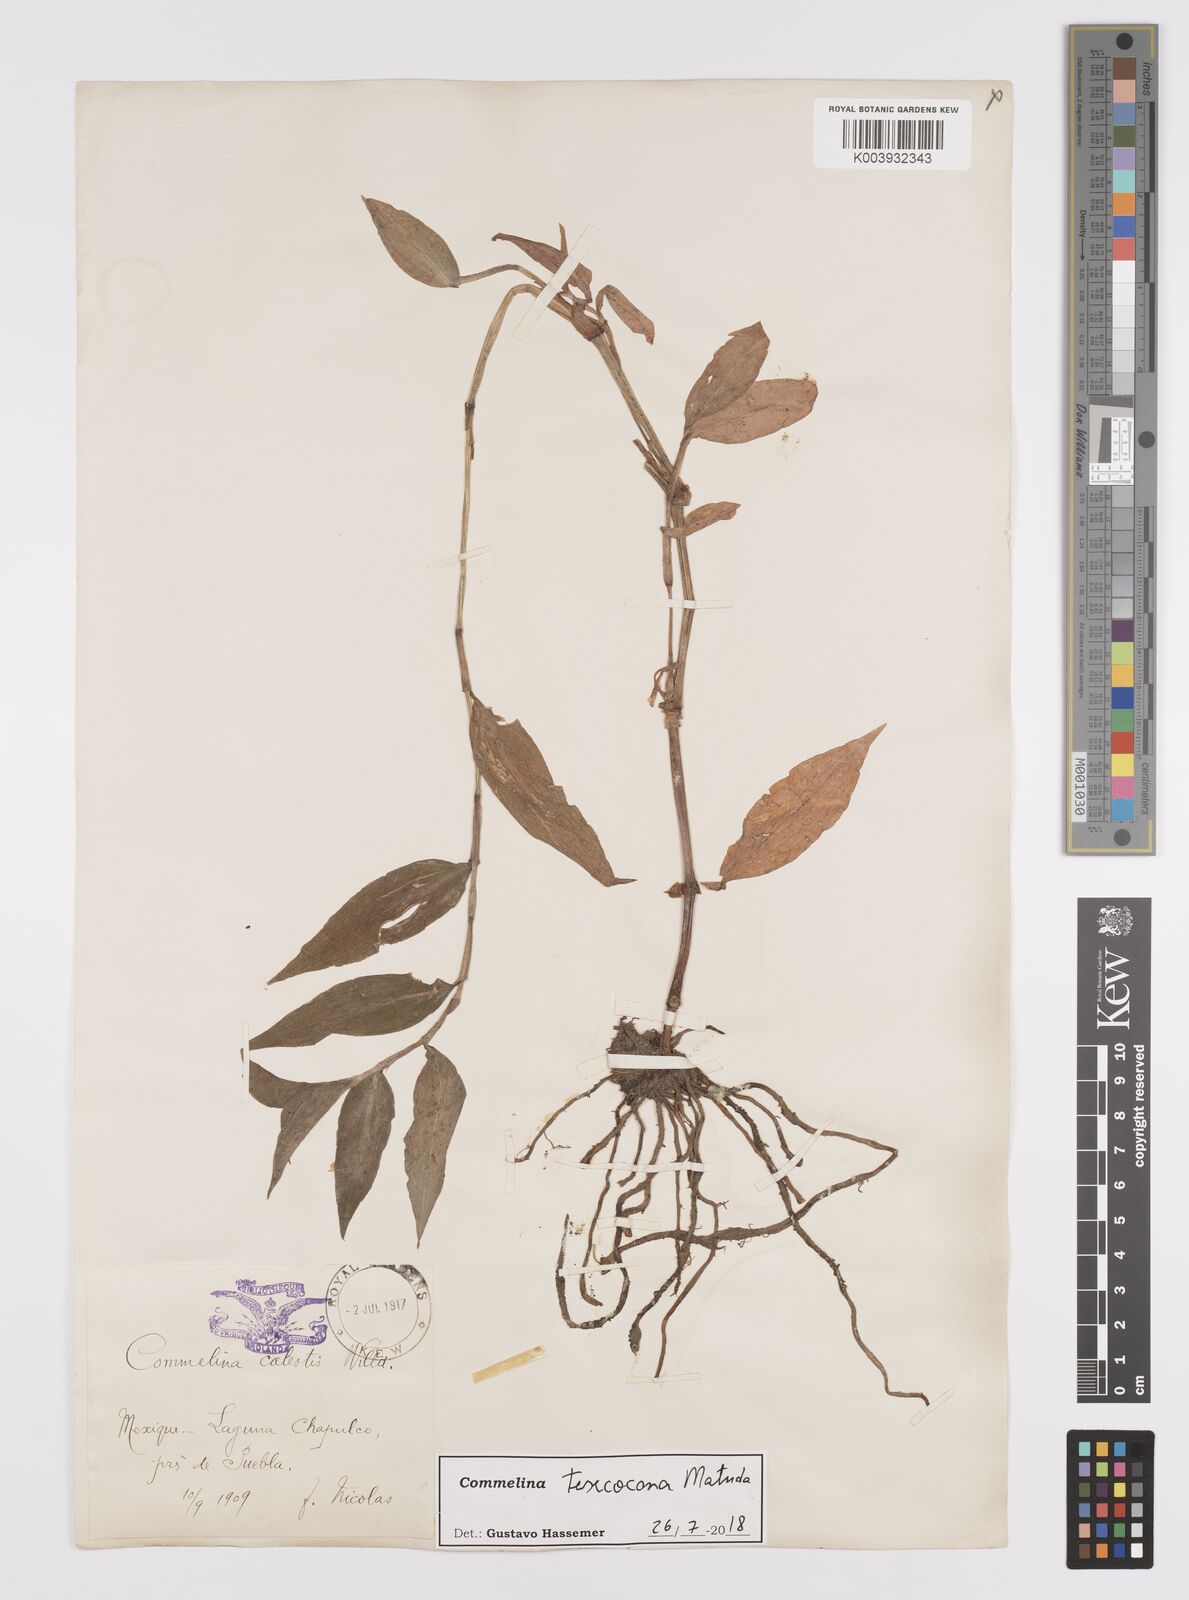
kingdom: Plantae
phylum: Tracheophyta
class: Liliopsida
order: Commelinales
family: Commelinaceae
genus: Commelina
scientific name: Commelina texcocana
